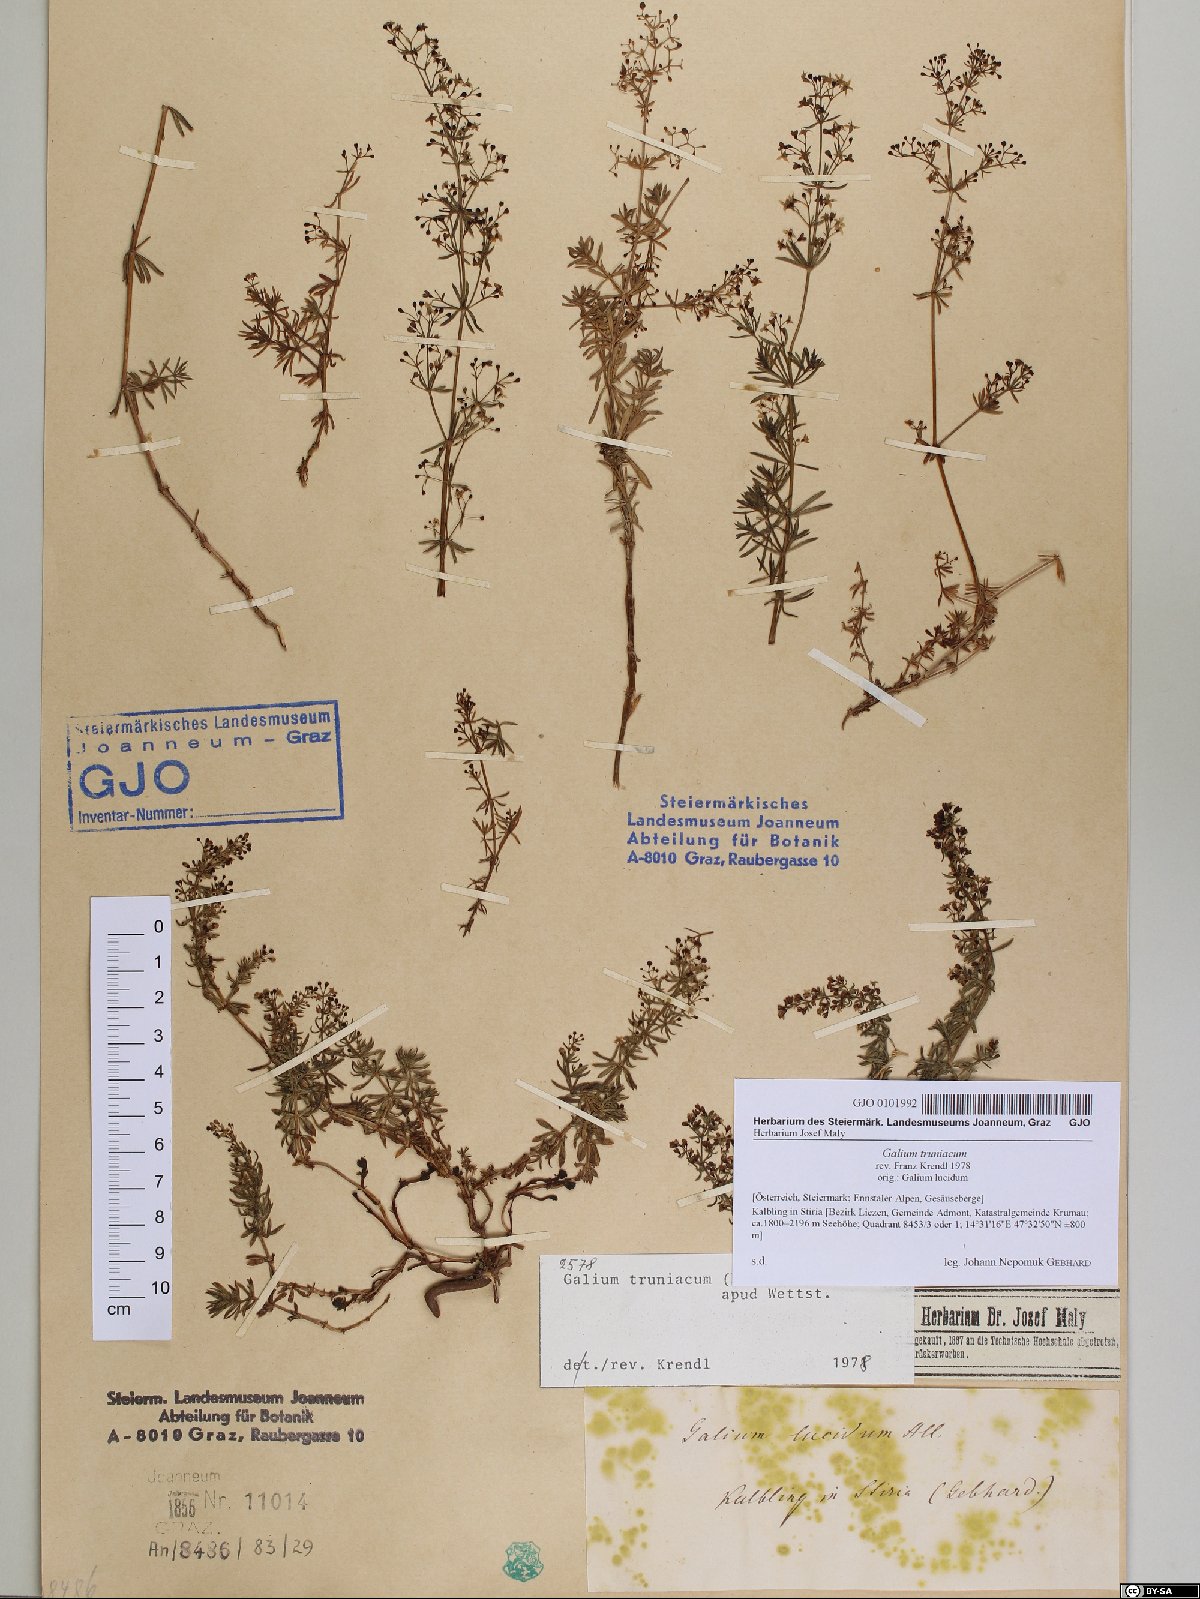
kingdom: Plantae
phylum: Tracheophyta
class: Magnoliopsida
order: Gentianales
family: Rubiaceae
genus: Galium
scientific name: Galium truniacum
